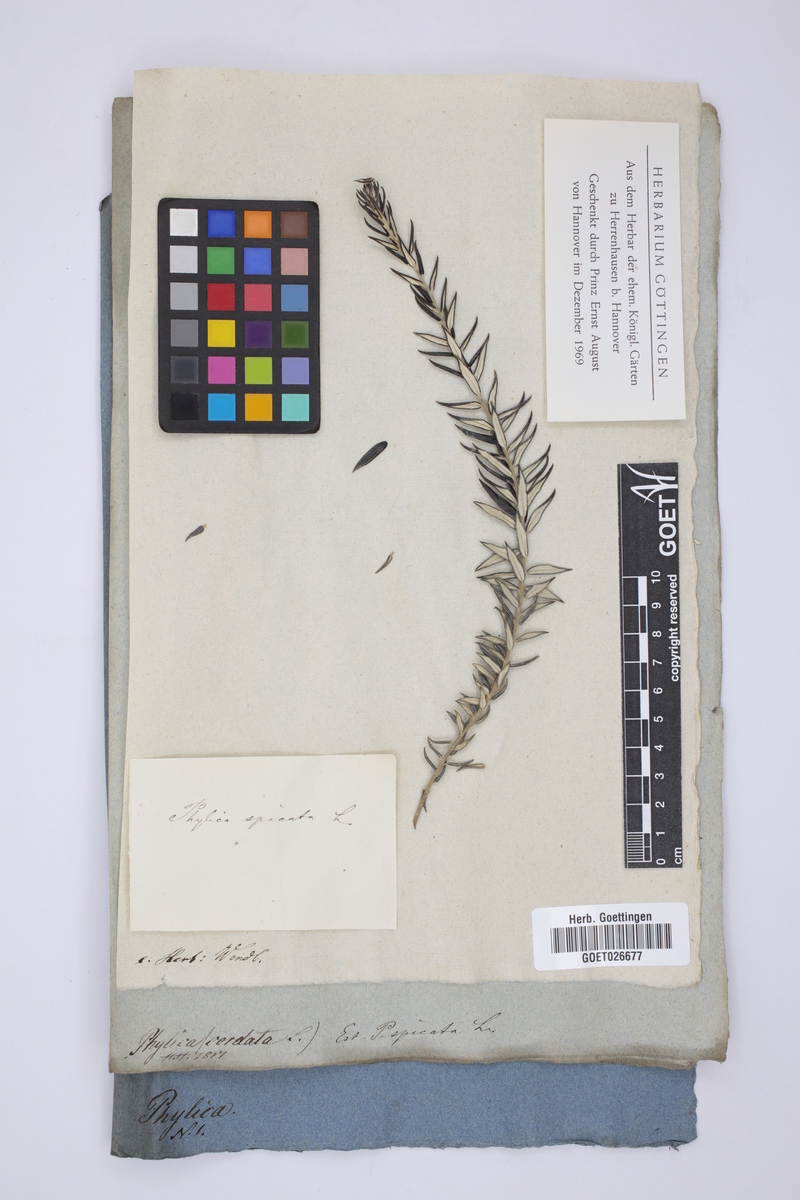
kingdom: Plantae
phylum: Tracheophyta
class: Magnoliopsida
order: Rosales
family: Rhamnaceae
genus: Phylica
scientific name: Phylica spicata
